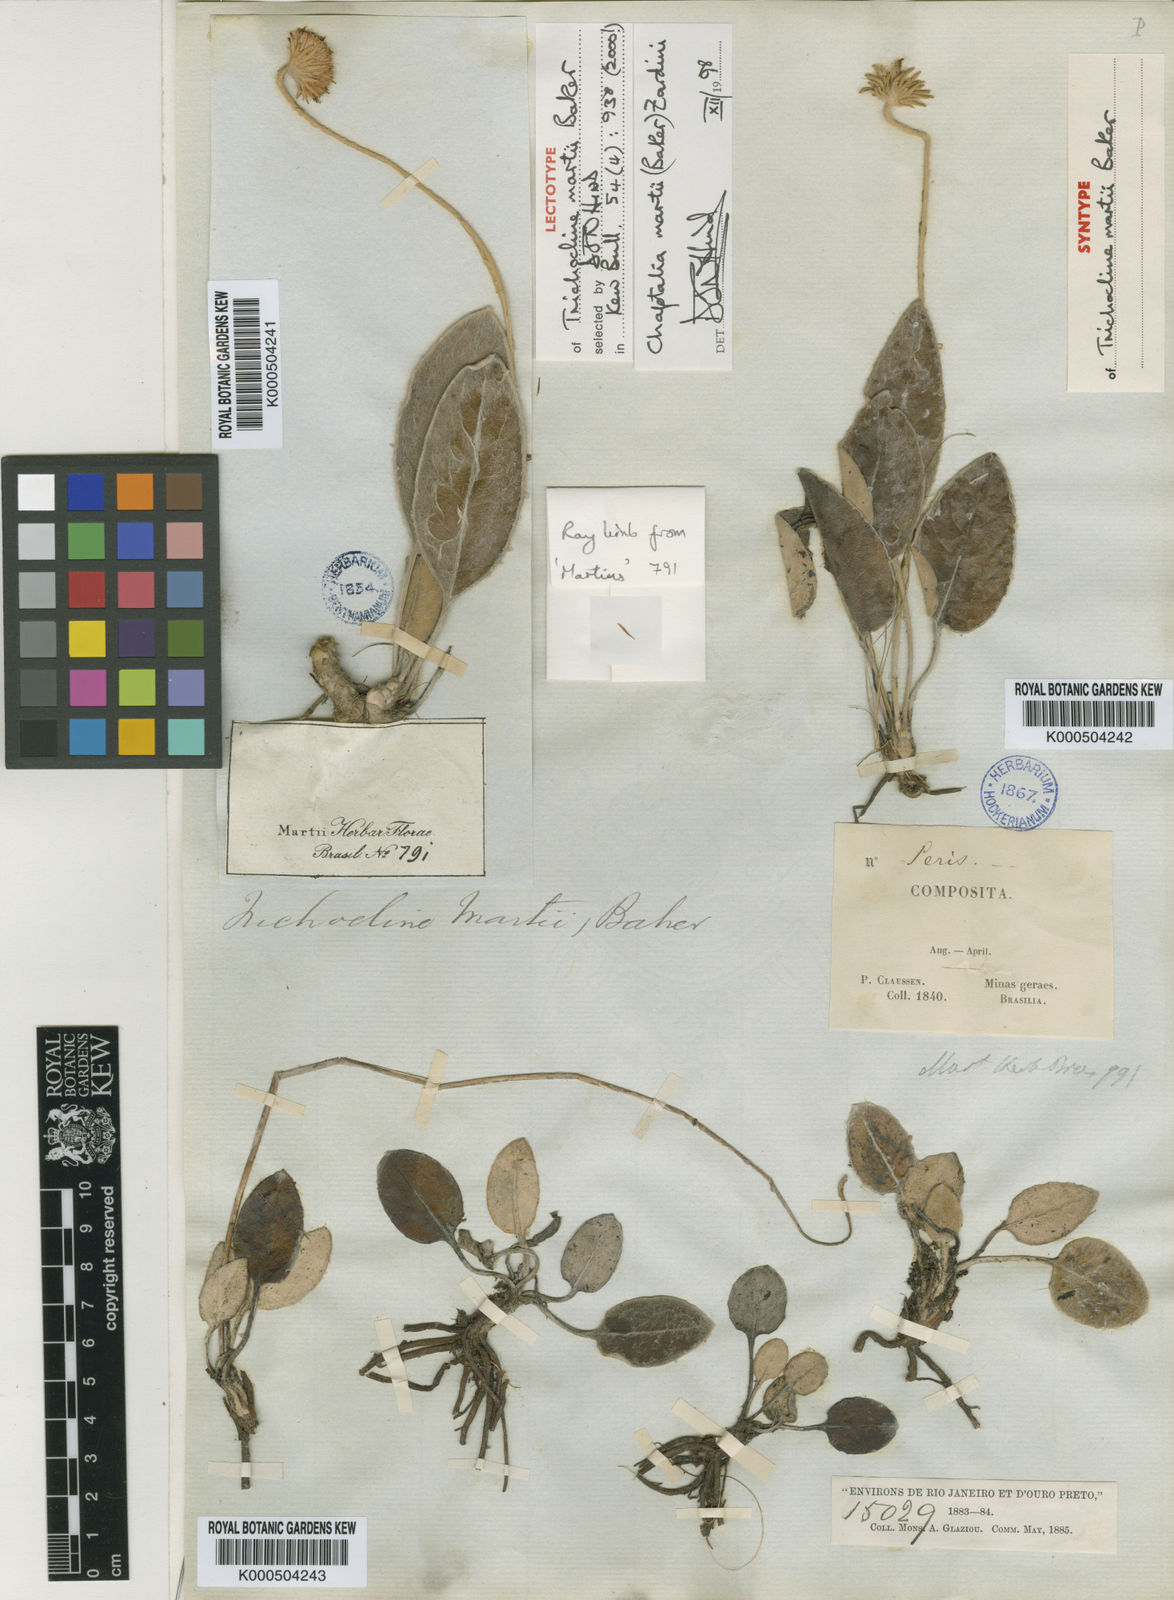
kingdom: Plantae
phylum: Tracheophyta
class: Magnoliopsida
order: Asterales
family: Asteraceae
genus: Chaptalia
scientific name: Chaptalia martii
